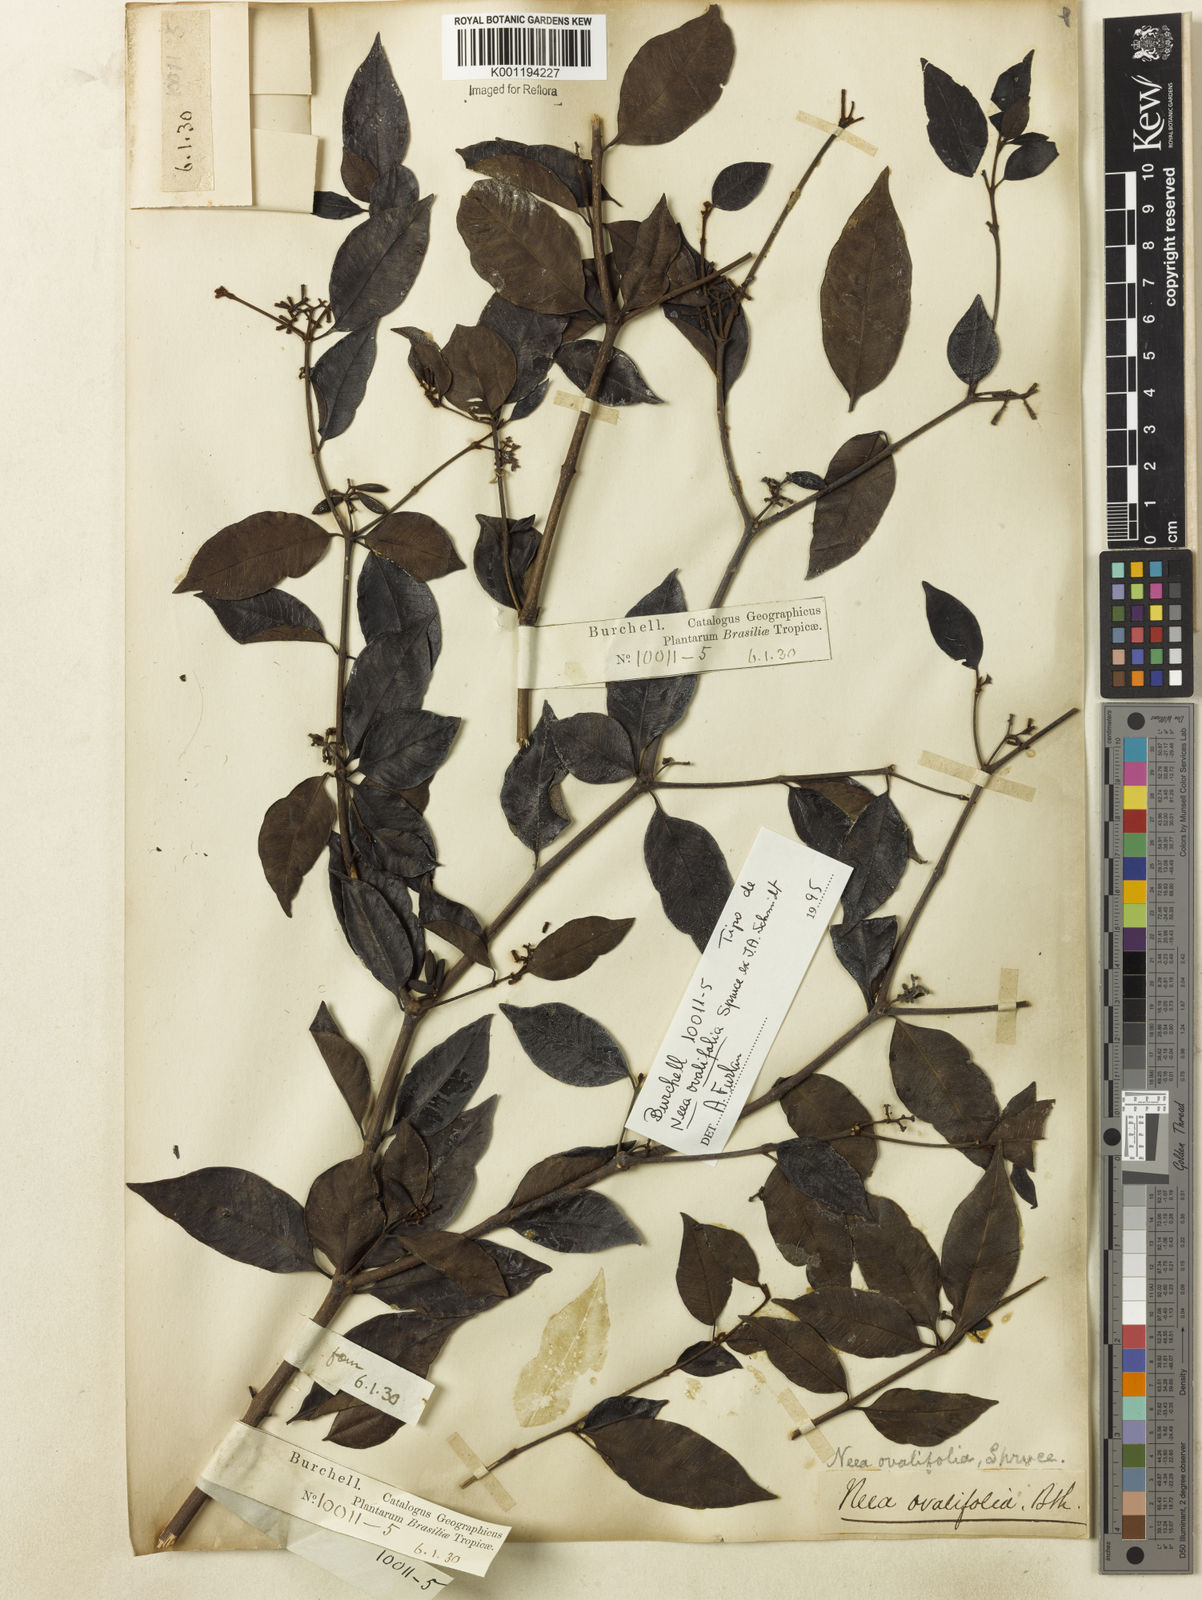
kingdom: Plantae
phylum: Tracheophyta
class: Magnoliopsida
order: Caryophyllales
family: Nyctaginaceae
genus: Neea
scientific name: Neea ovalifolia
